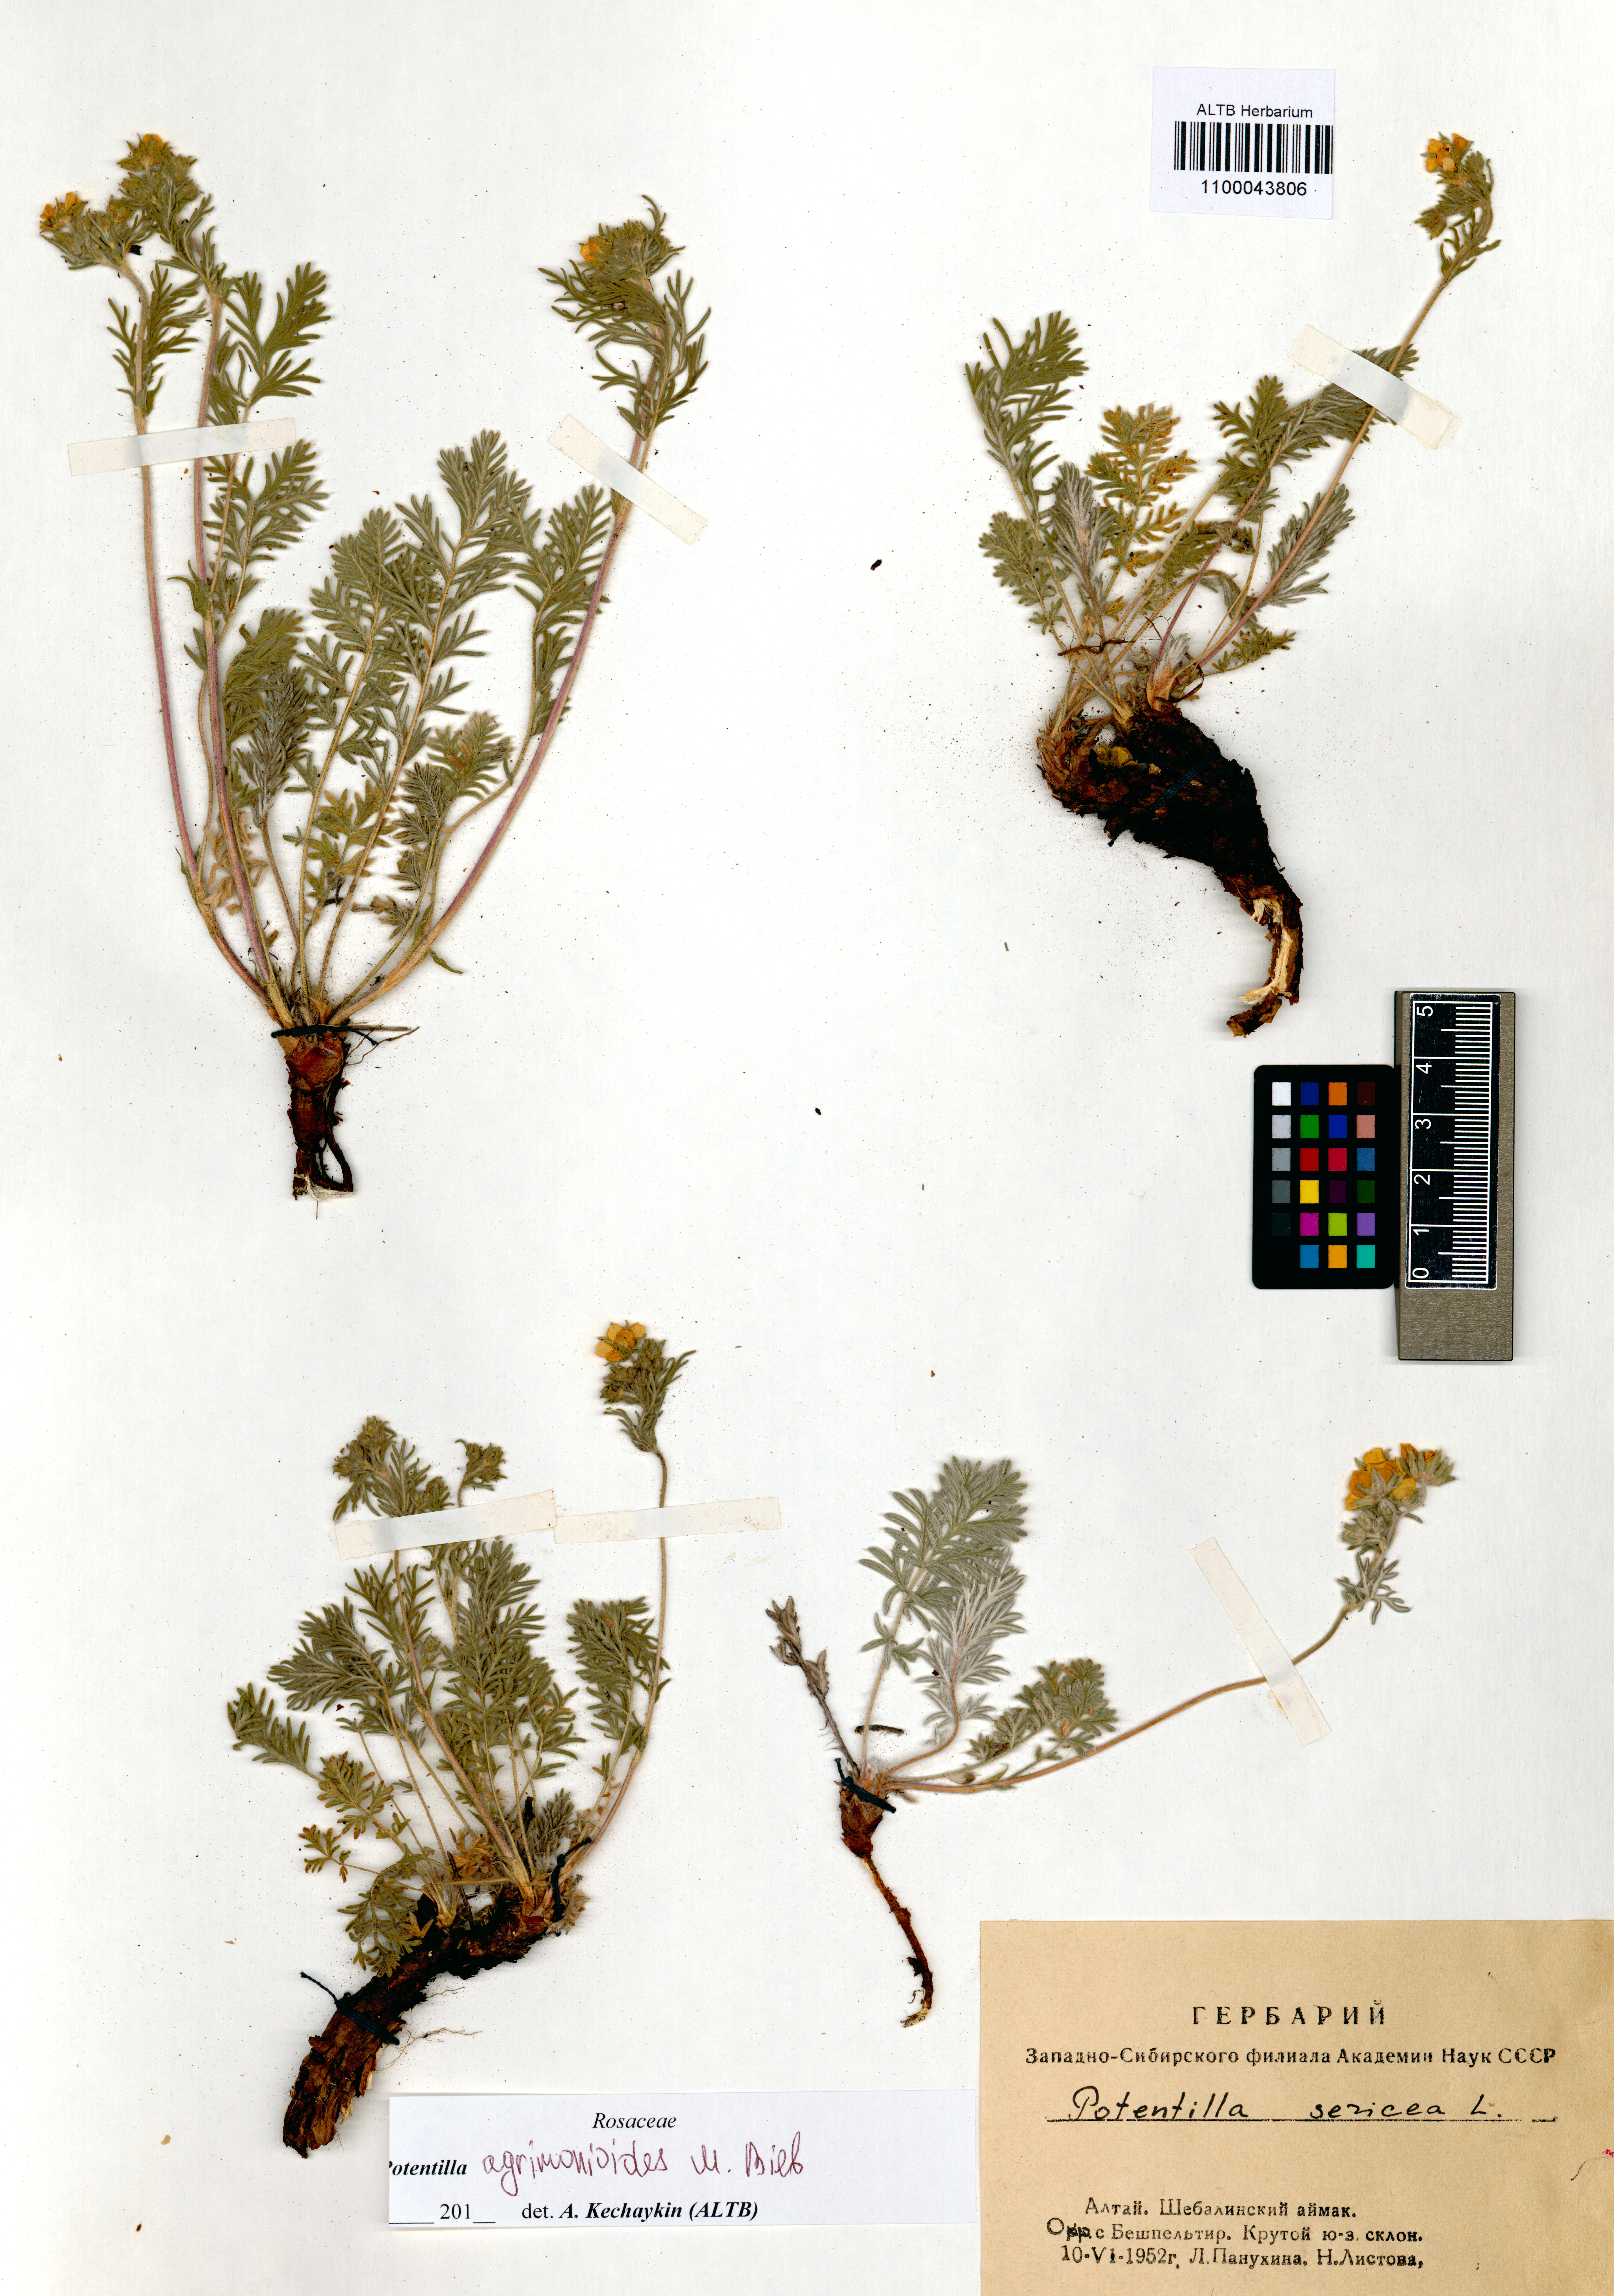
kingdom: Plantae
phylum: Tracheophyta
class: Magnoliopsida
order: Rosales
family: Rosaceae
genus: Potentilla
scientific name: Potentilla agrimonioides
